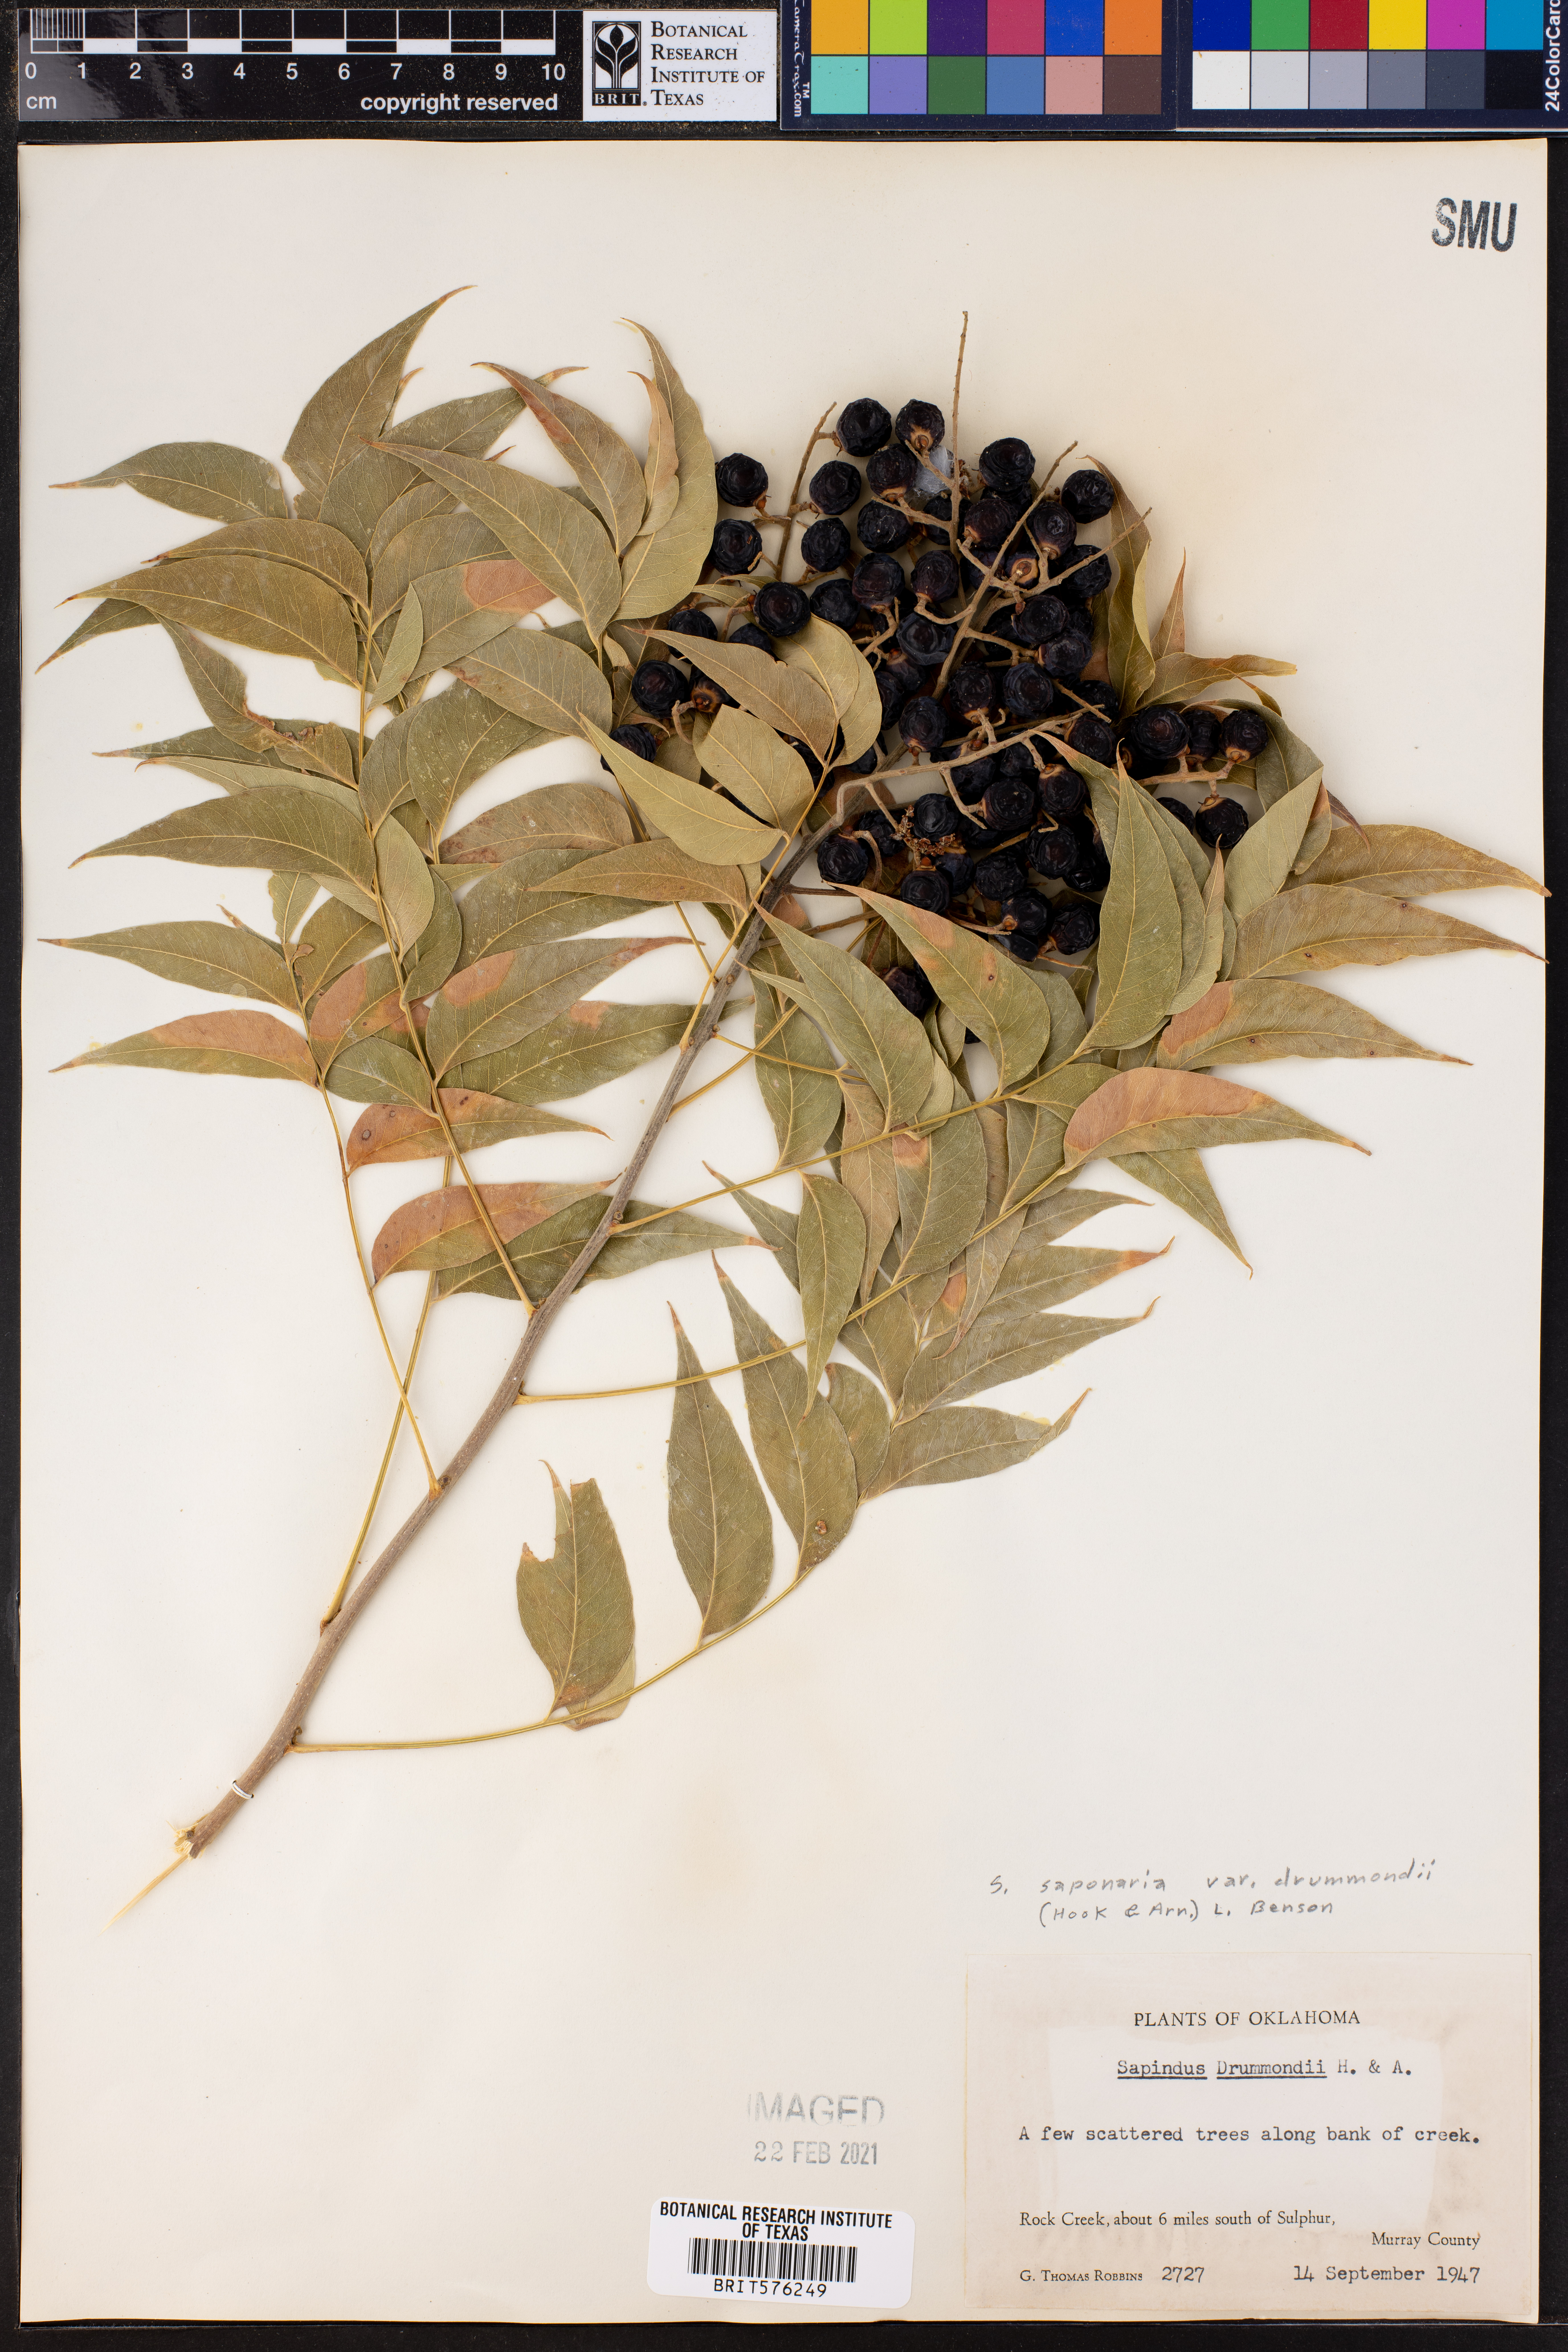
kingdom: Plantae
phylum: Tracheophyta
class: Magnoliopsida
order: Sapindales
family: Sapindaceae
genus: Sapindus
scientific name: Sapindus drummondii
